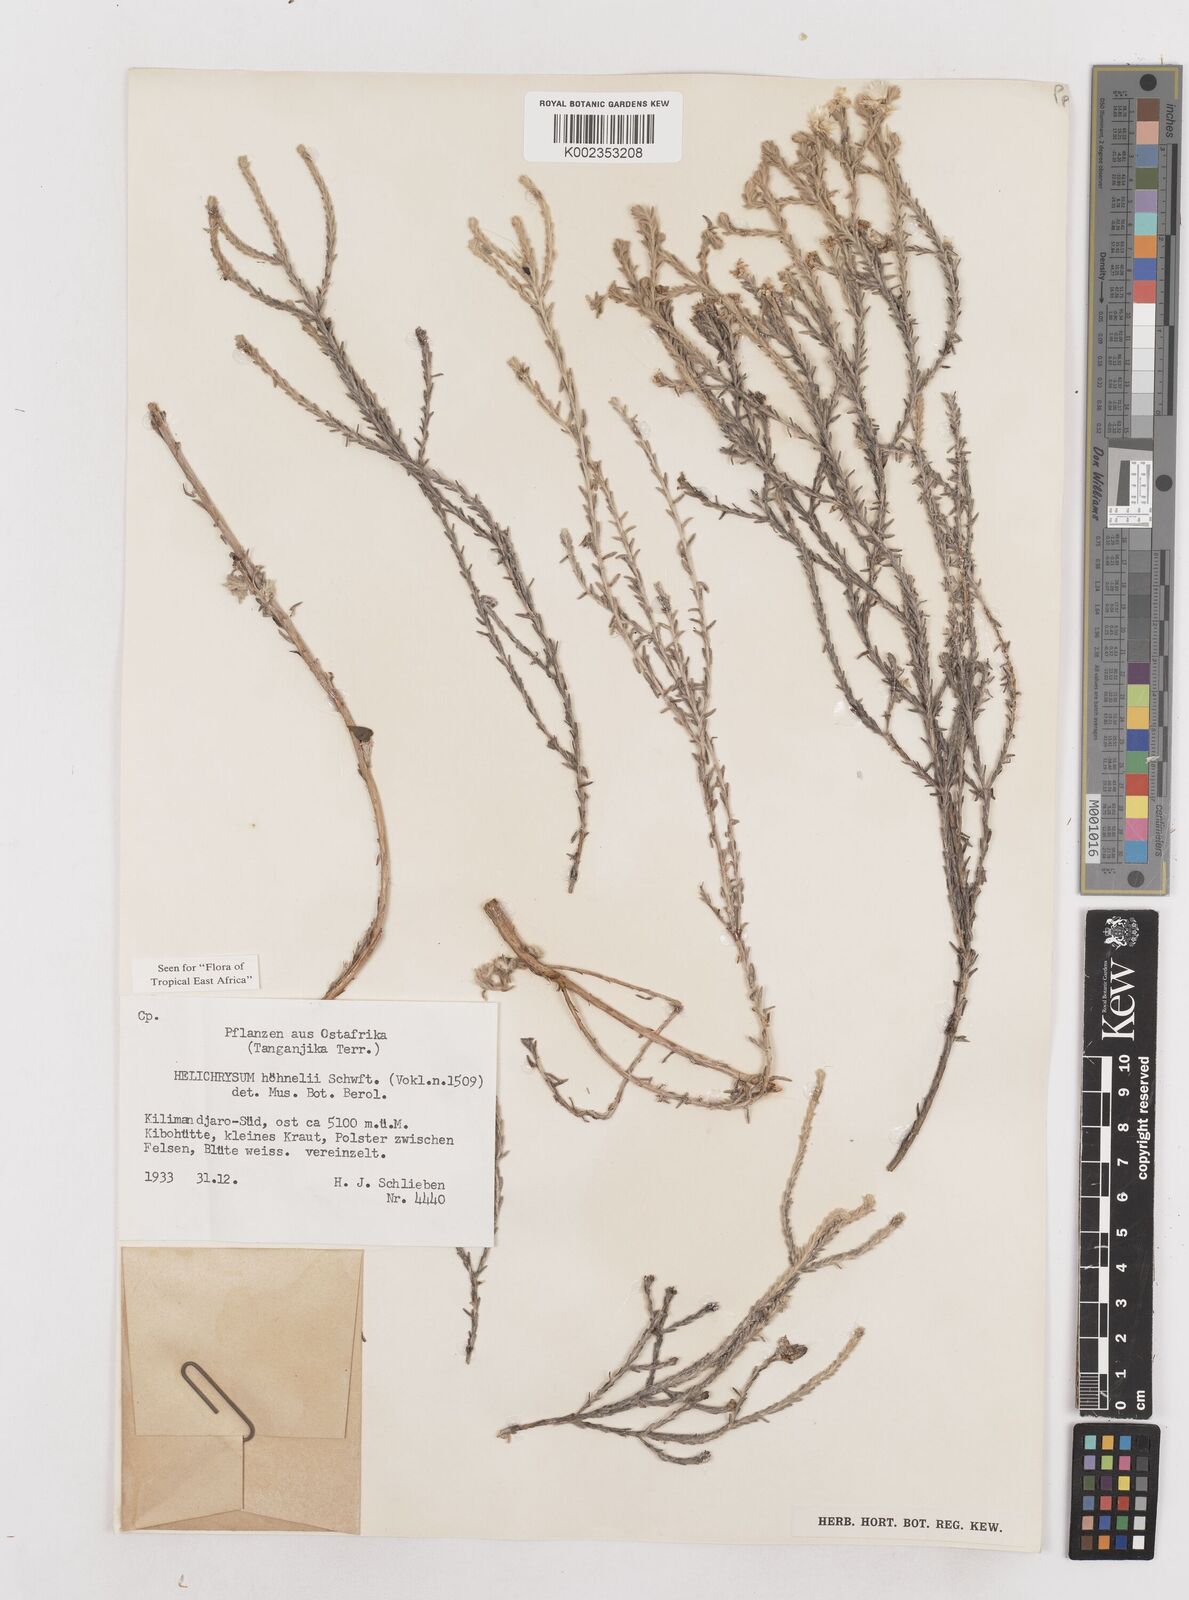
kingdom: Plantae
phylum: Tracheophyta
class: Magnoliopsida
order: Asterales
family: Asteraceae
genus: Helichrysum
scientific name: Helichrysum citrispinum
